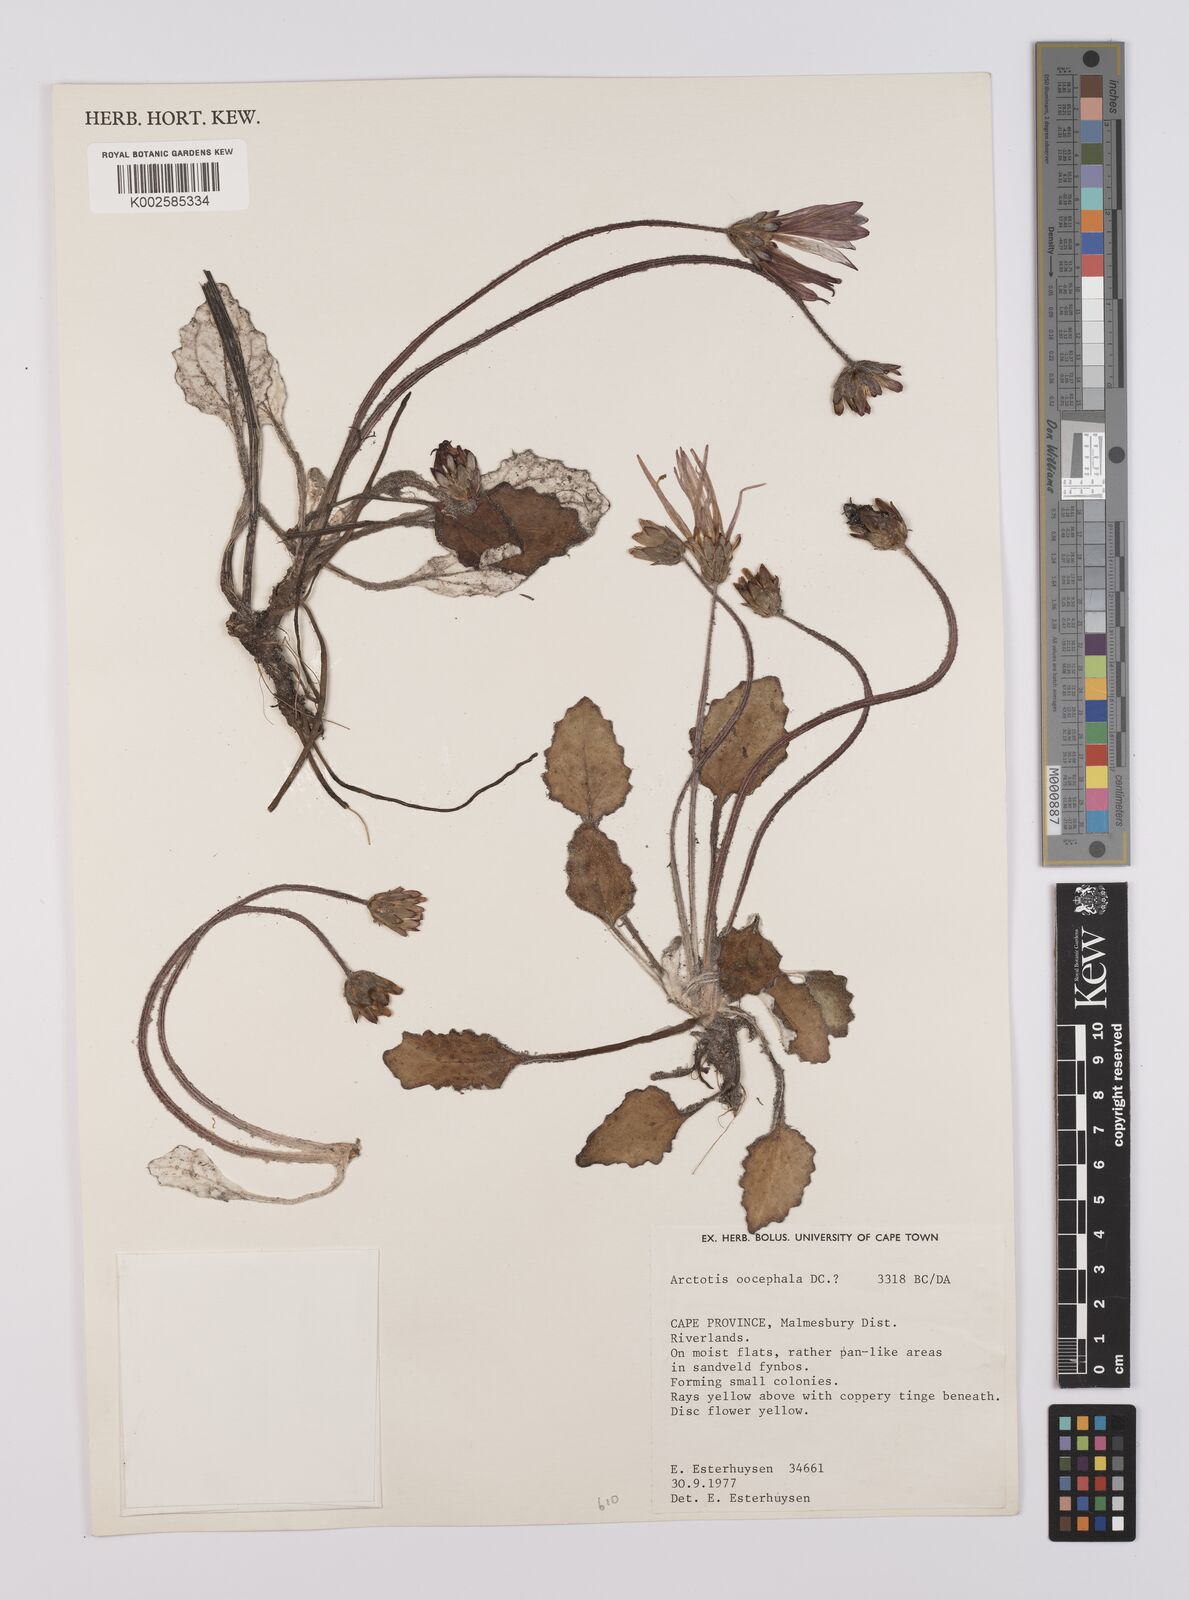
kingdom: Plantae
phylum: Tracheophyta
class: Magnoliopsida
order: Asterales
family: Asteraceae
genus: Haplocarpha
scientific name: Haplocarpha oocephala
